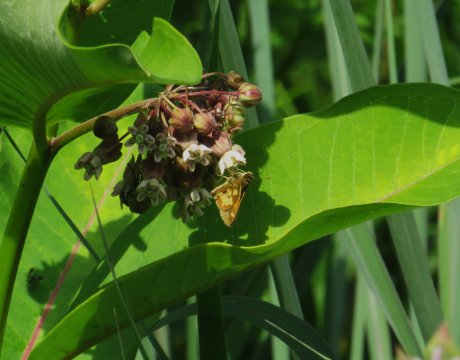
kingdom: Animalia
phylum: Arthropoda
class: Insecta
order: Lepidoptera
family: Hesperiidae
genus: Polites
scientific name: Polites coras
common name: Peck's Skipper
